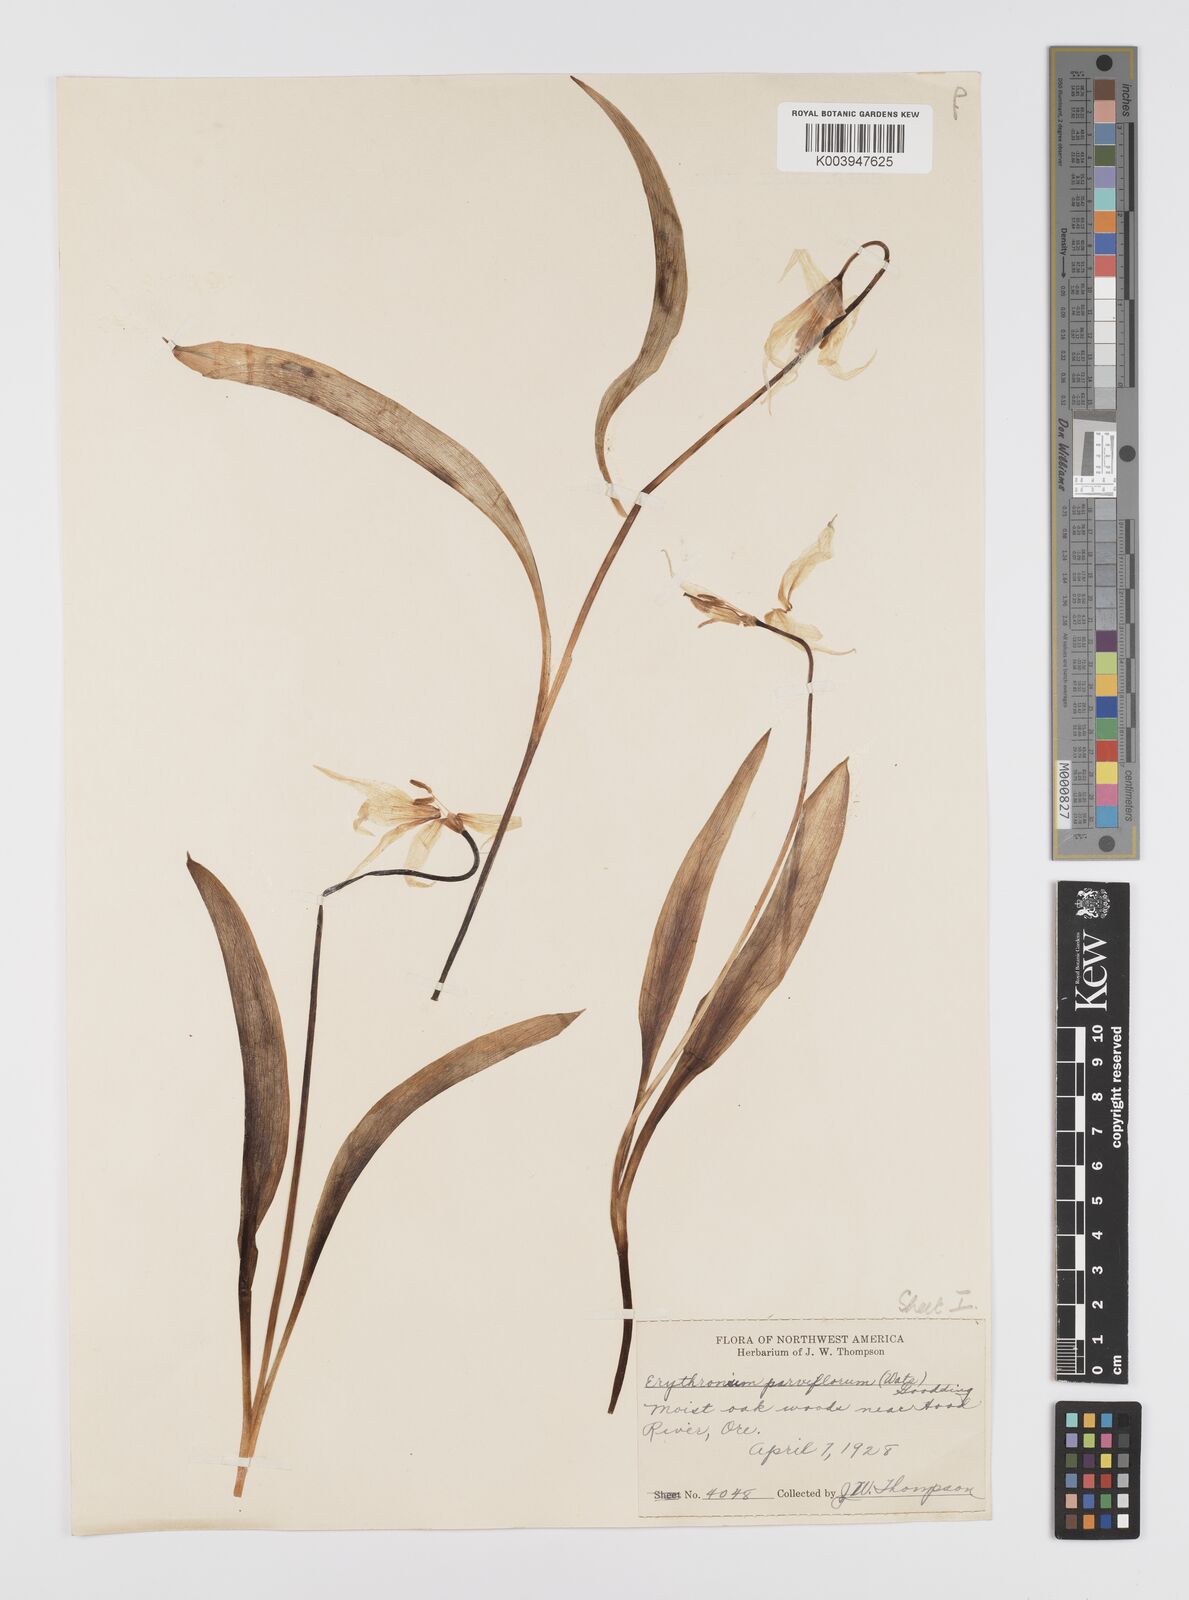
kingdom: Plantae
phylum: Tracheophyta
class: Liliopsida
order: Liliales
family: Liliaceae
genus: Erythronium
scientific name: Erythronium grandiflorum
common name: Avalanche-lily
